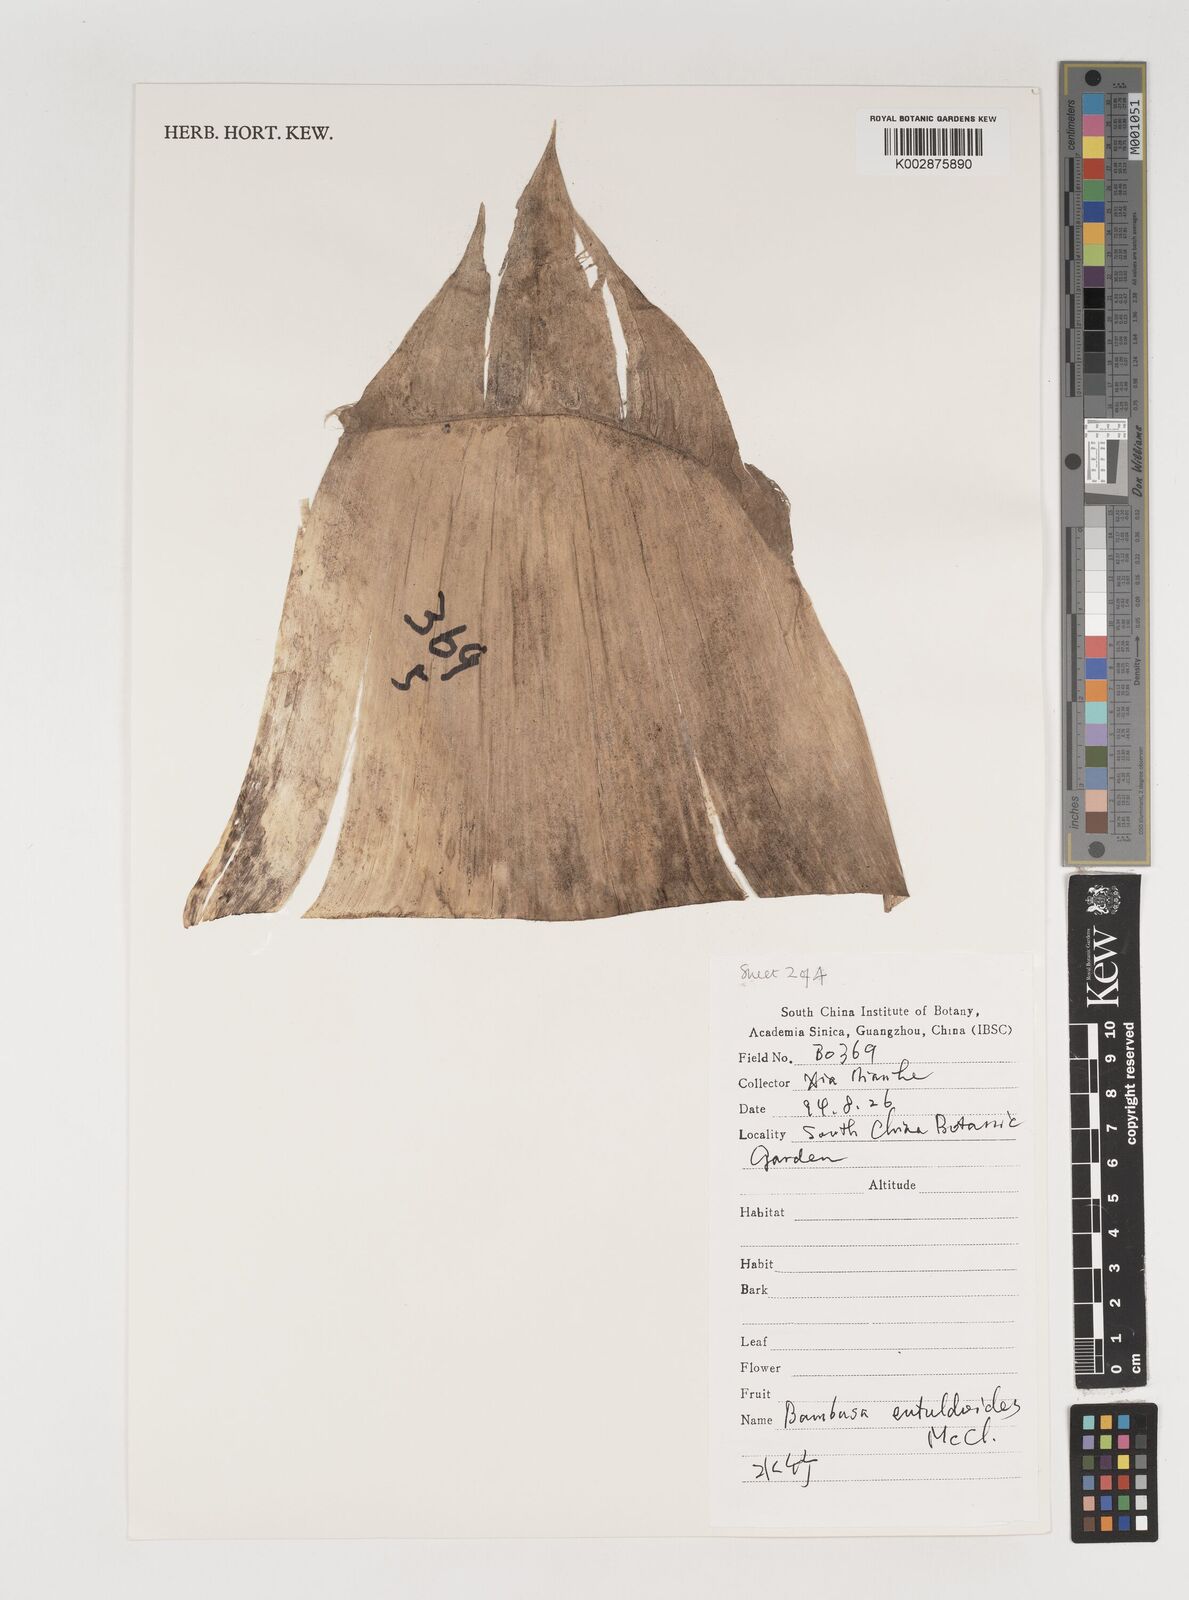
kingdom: Plantae
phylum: Tracheophyta
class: Liliopsida
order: Poales
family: Poaceae
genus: Bambusa
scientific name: Bambusa eutuldoides
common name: Dai ngan bamboo
